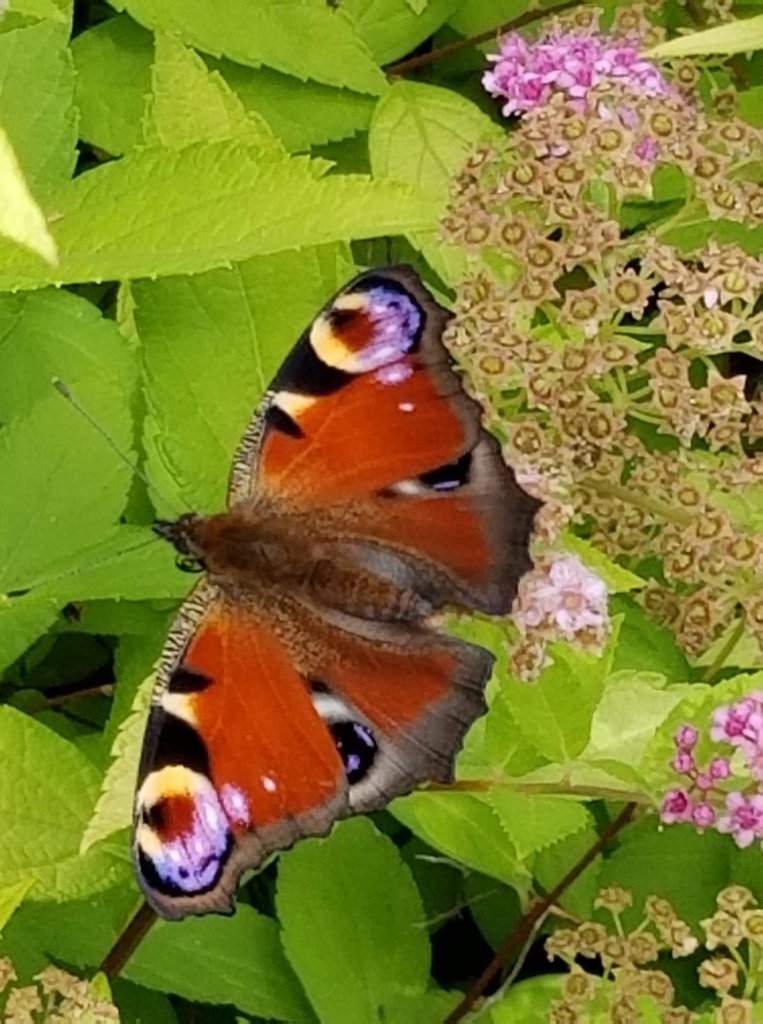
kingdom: Animalia
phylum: Arthropoda
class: Insecta
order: Lepidoptera
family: Nymphalidae
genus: Aglais
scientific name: Aglais io
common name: European Peacock
